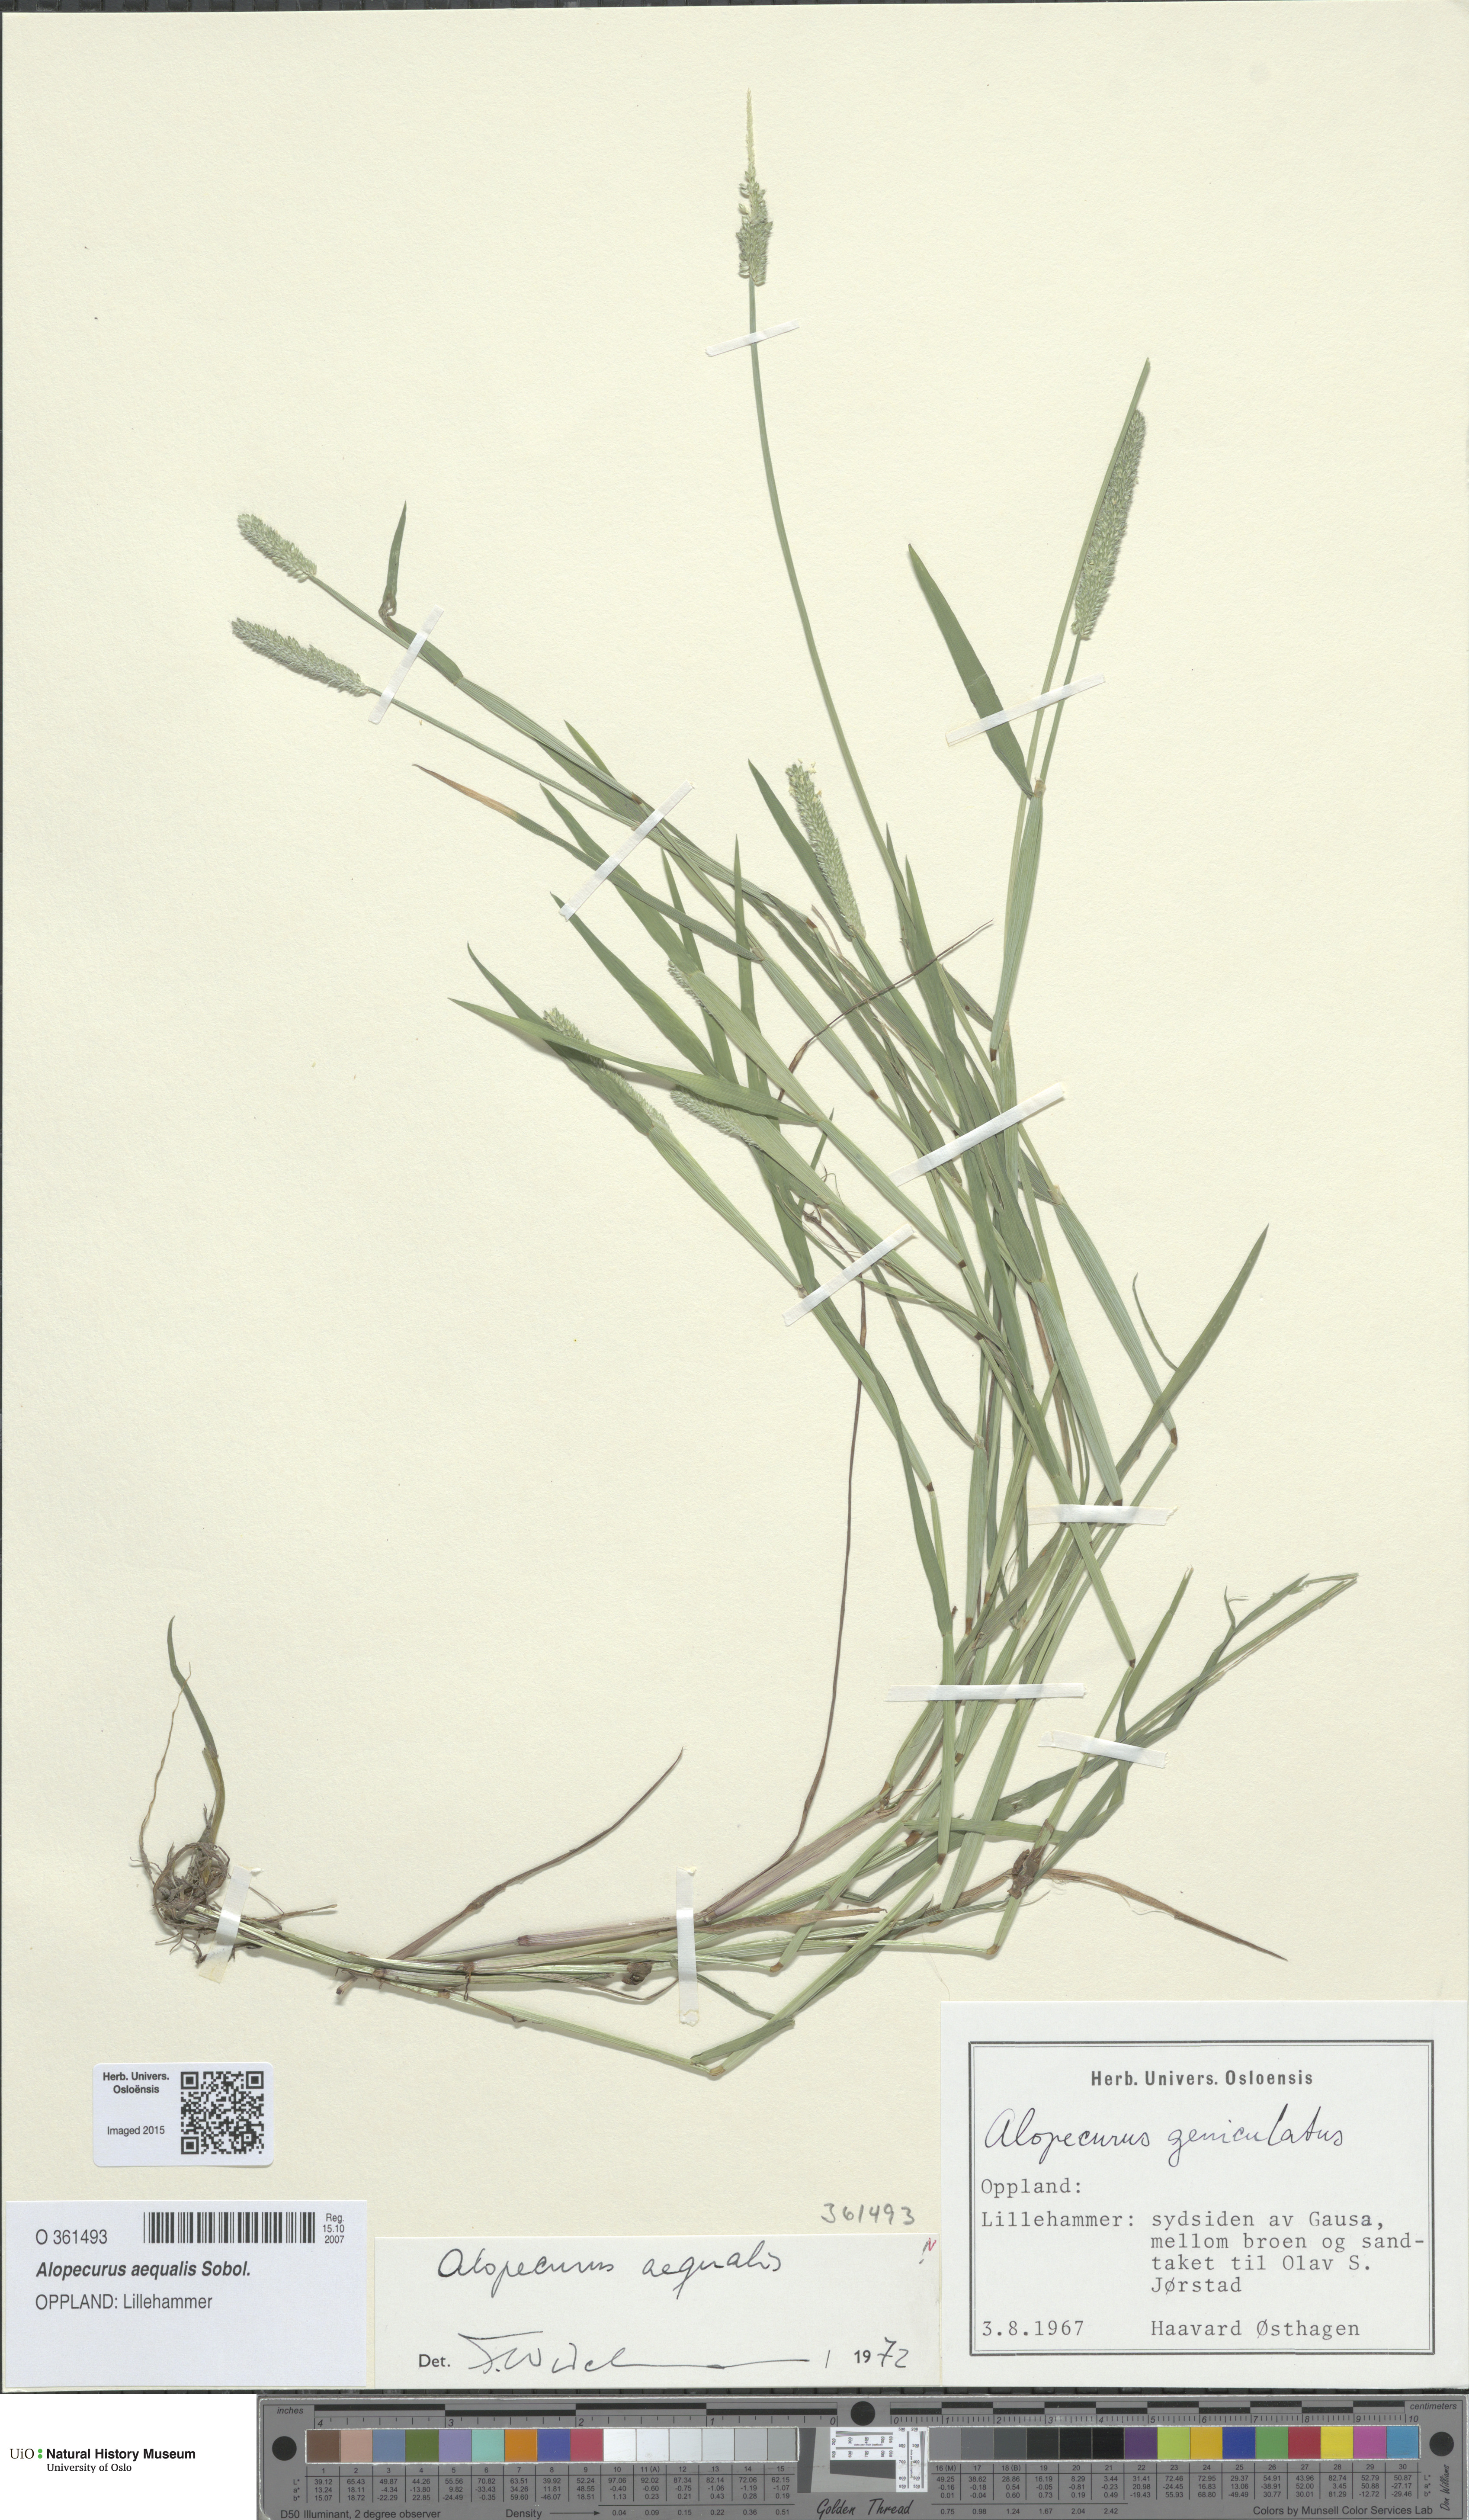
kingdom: Plantae
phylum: Tracheophyta
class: Liliopsida
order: Poales
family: Poaceae
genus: Alopecurus
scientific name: Alopecurus aequalis
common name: Orange foxtail
